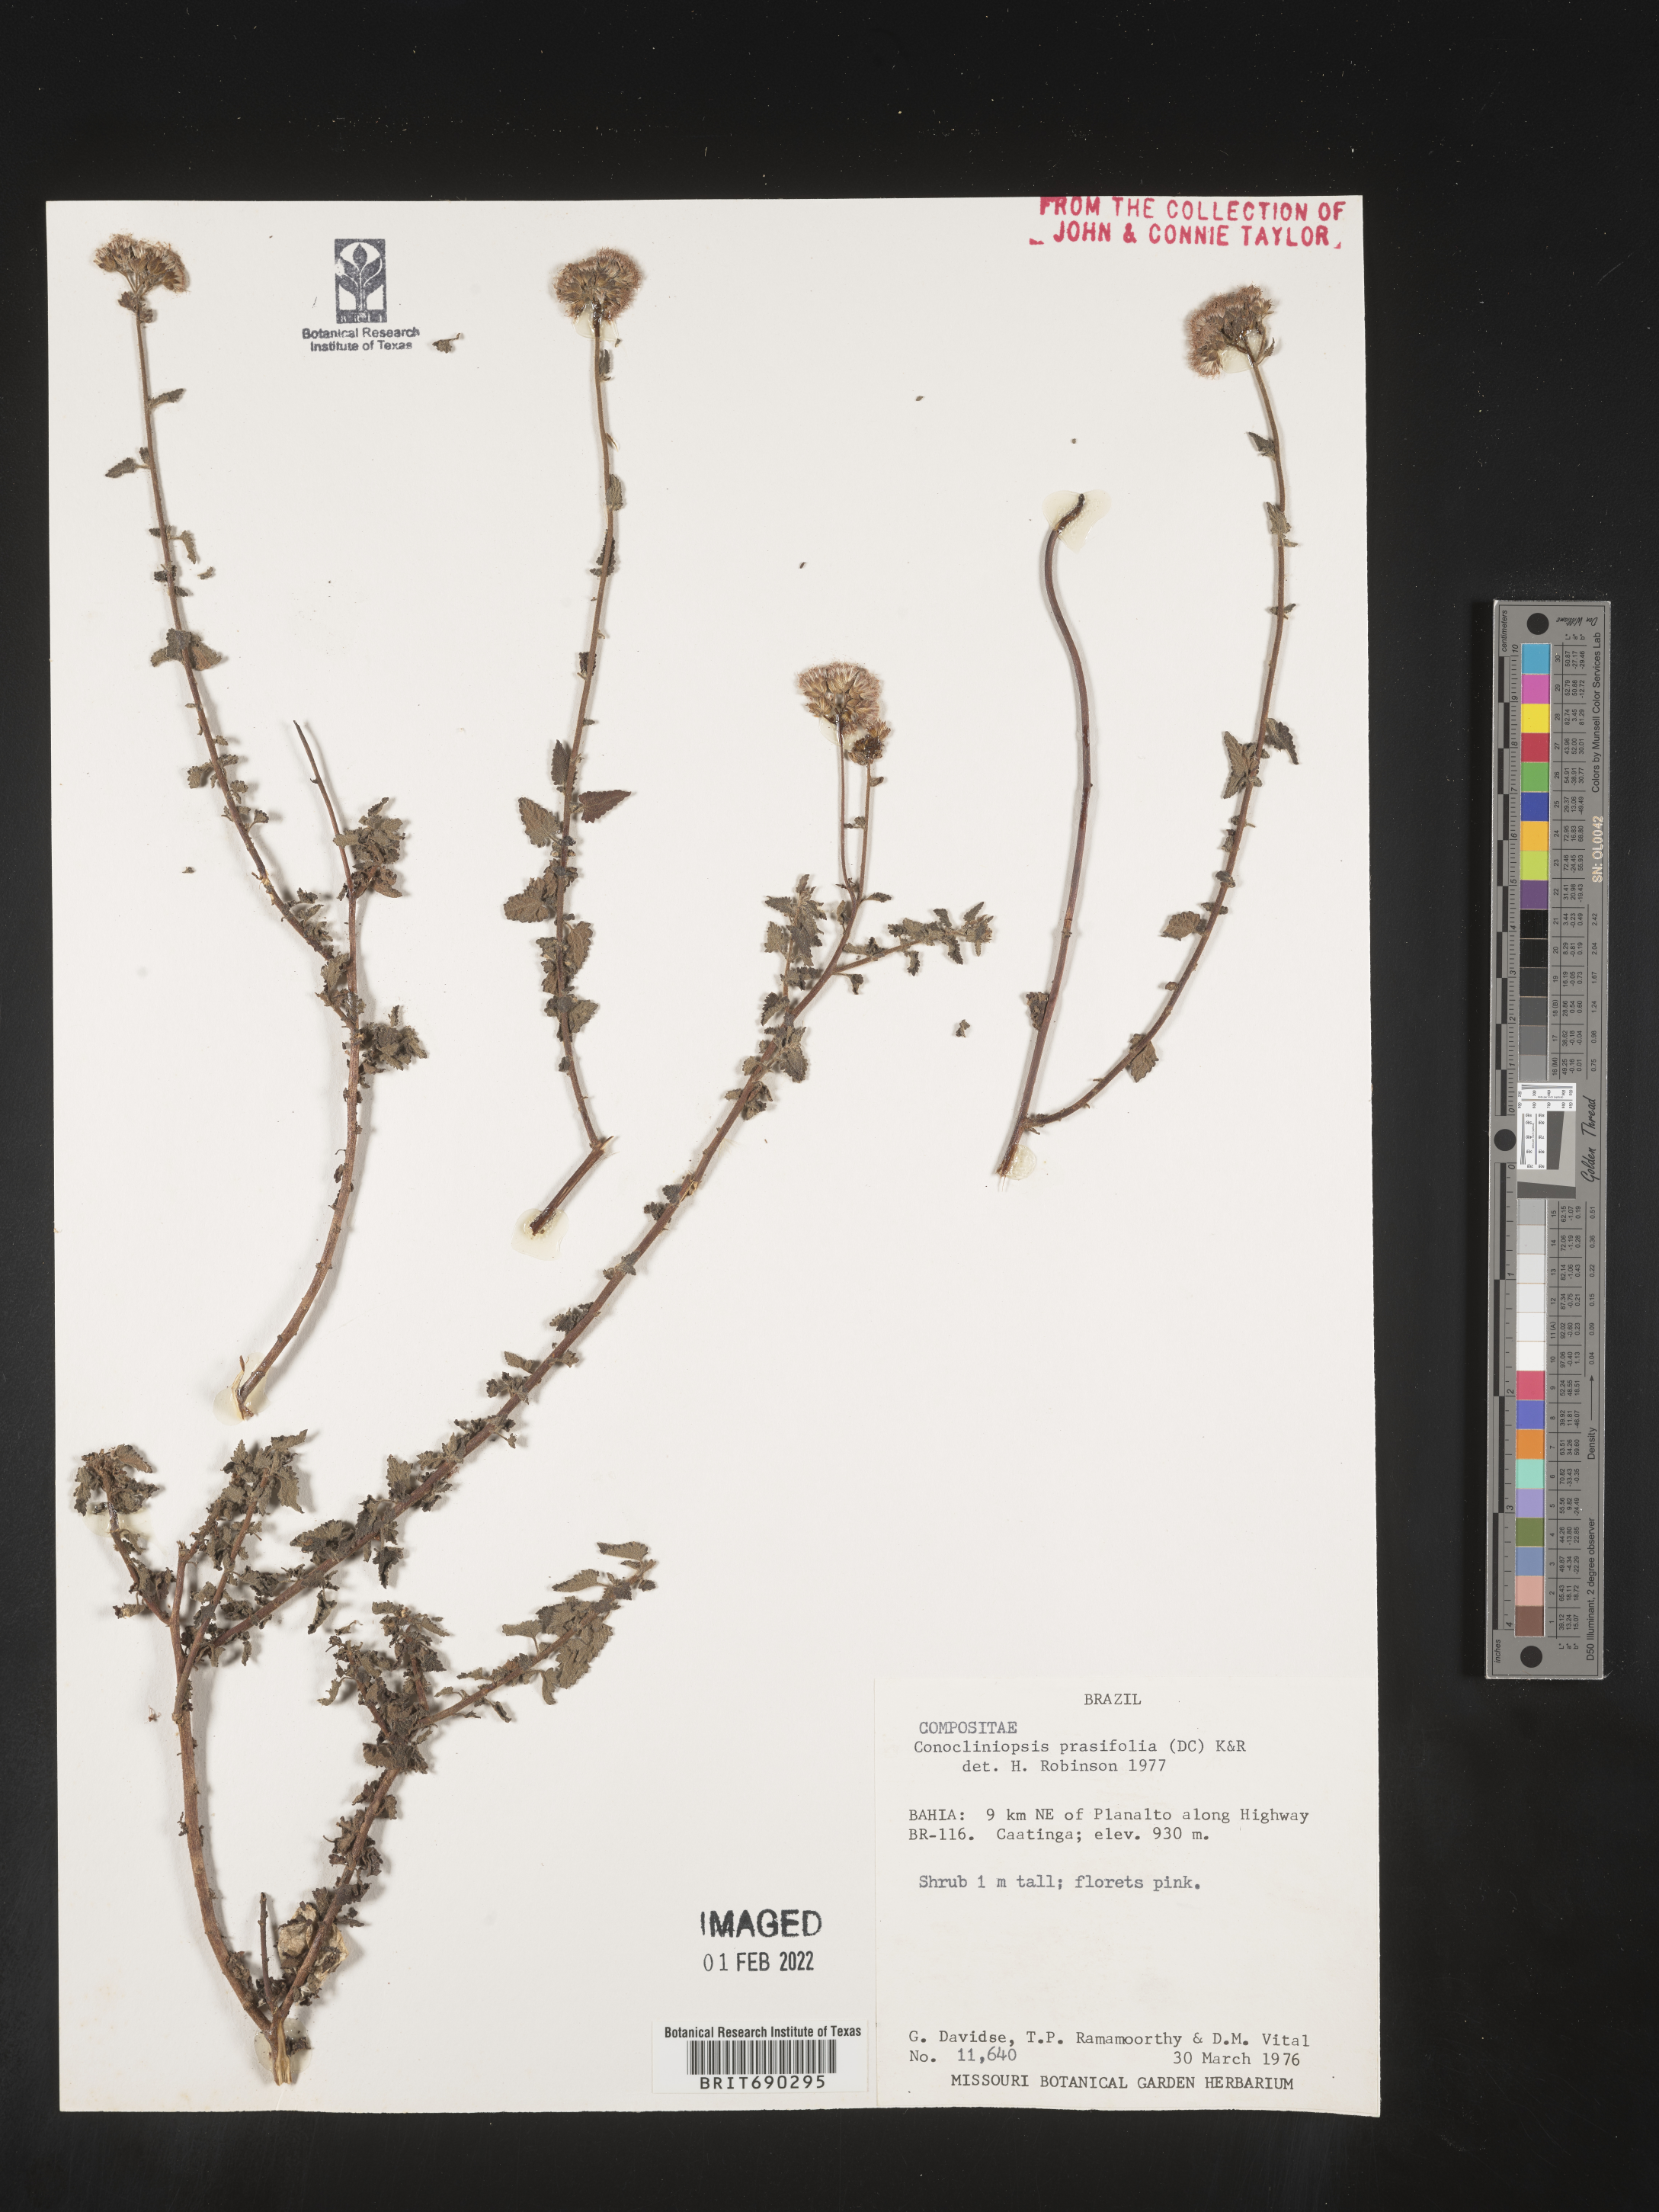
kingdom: Plantae
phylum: Tracheophyta
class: Magnoliopsida
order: Asterales
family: Asteraceae
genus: Conocliniopsis
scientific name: Conocliniopsis
